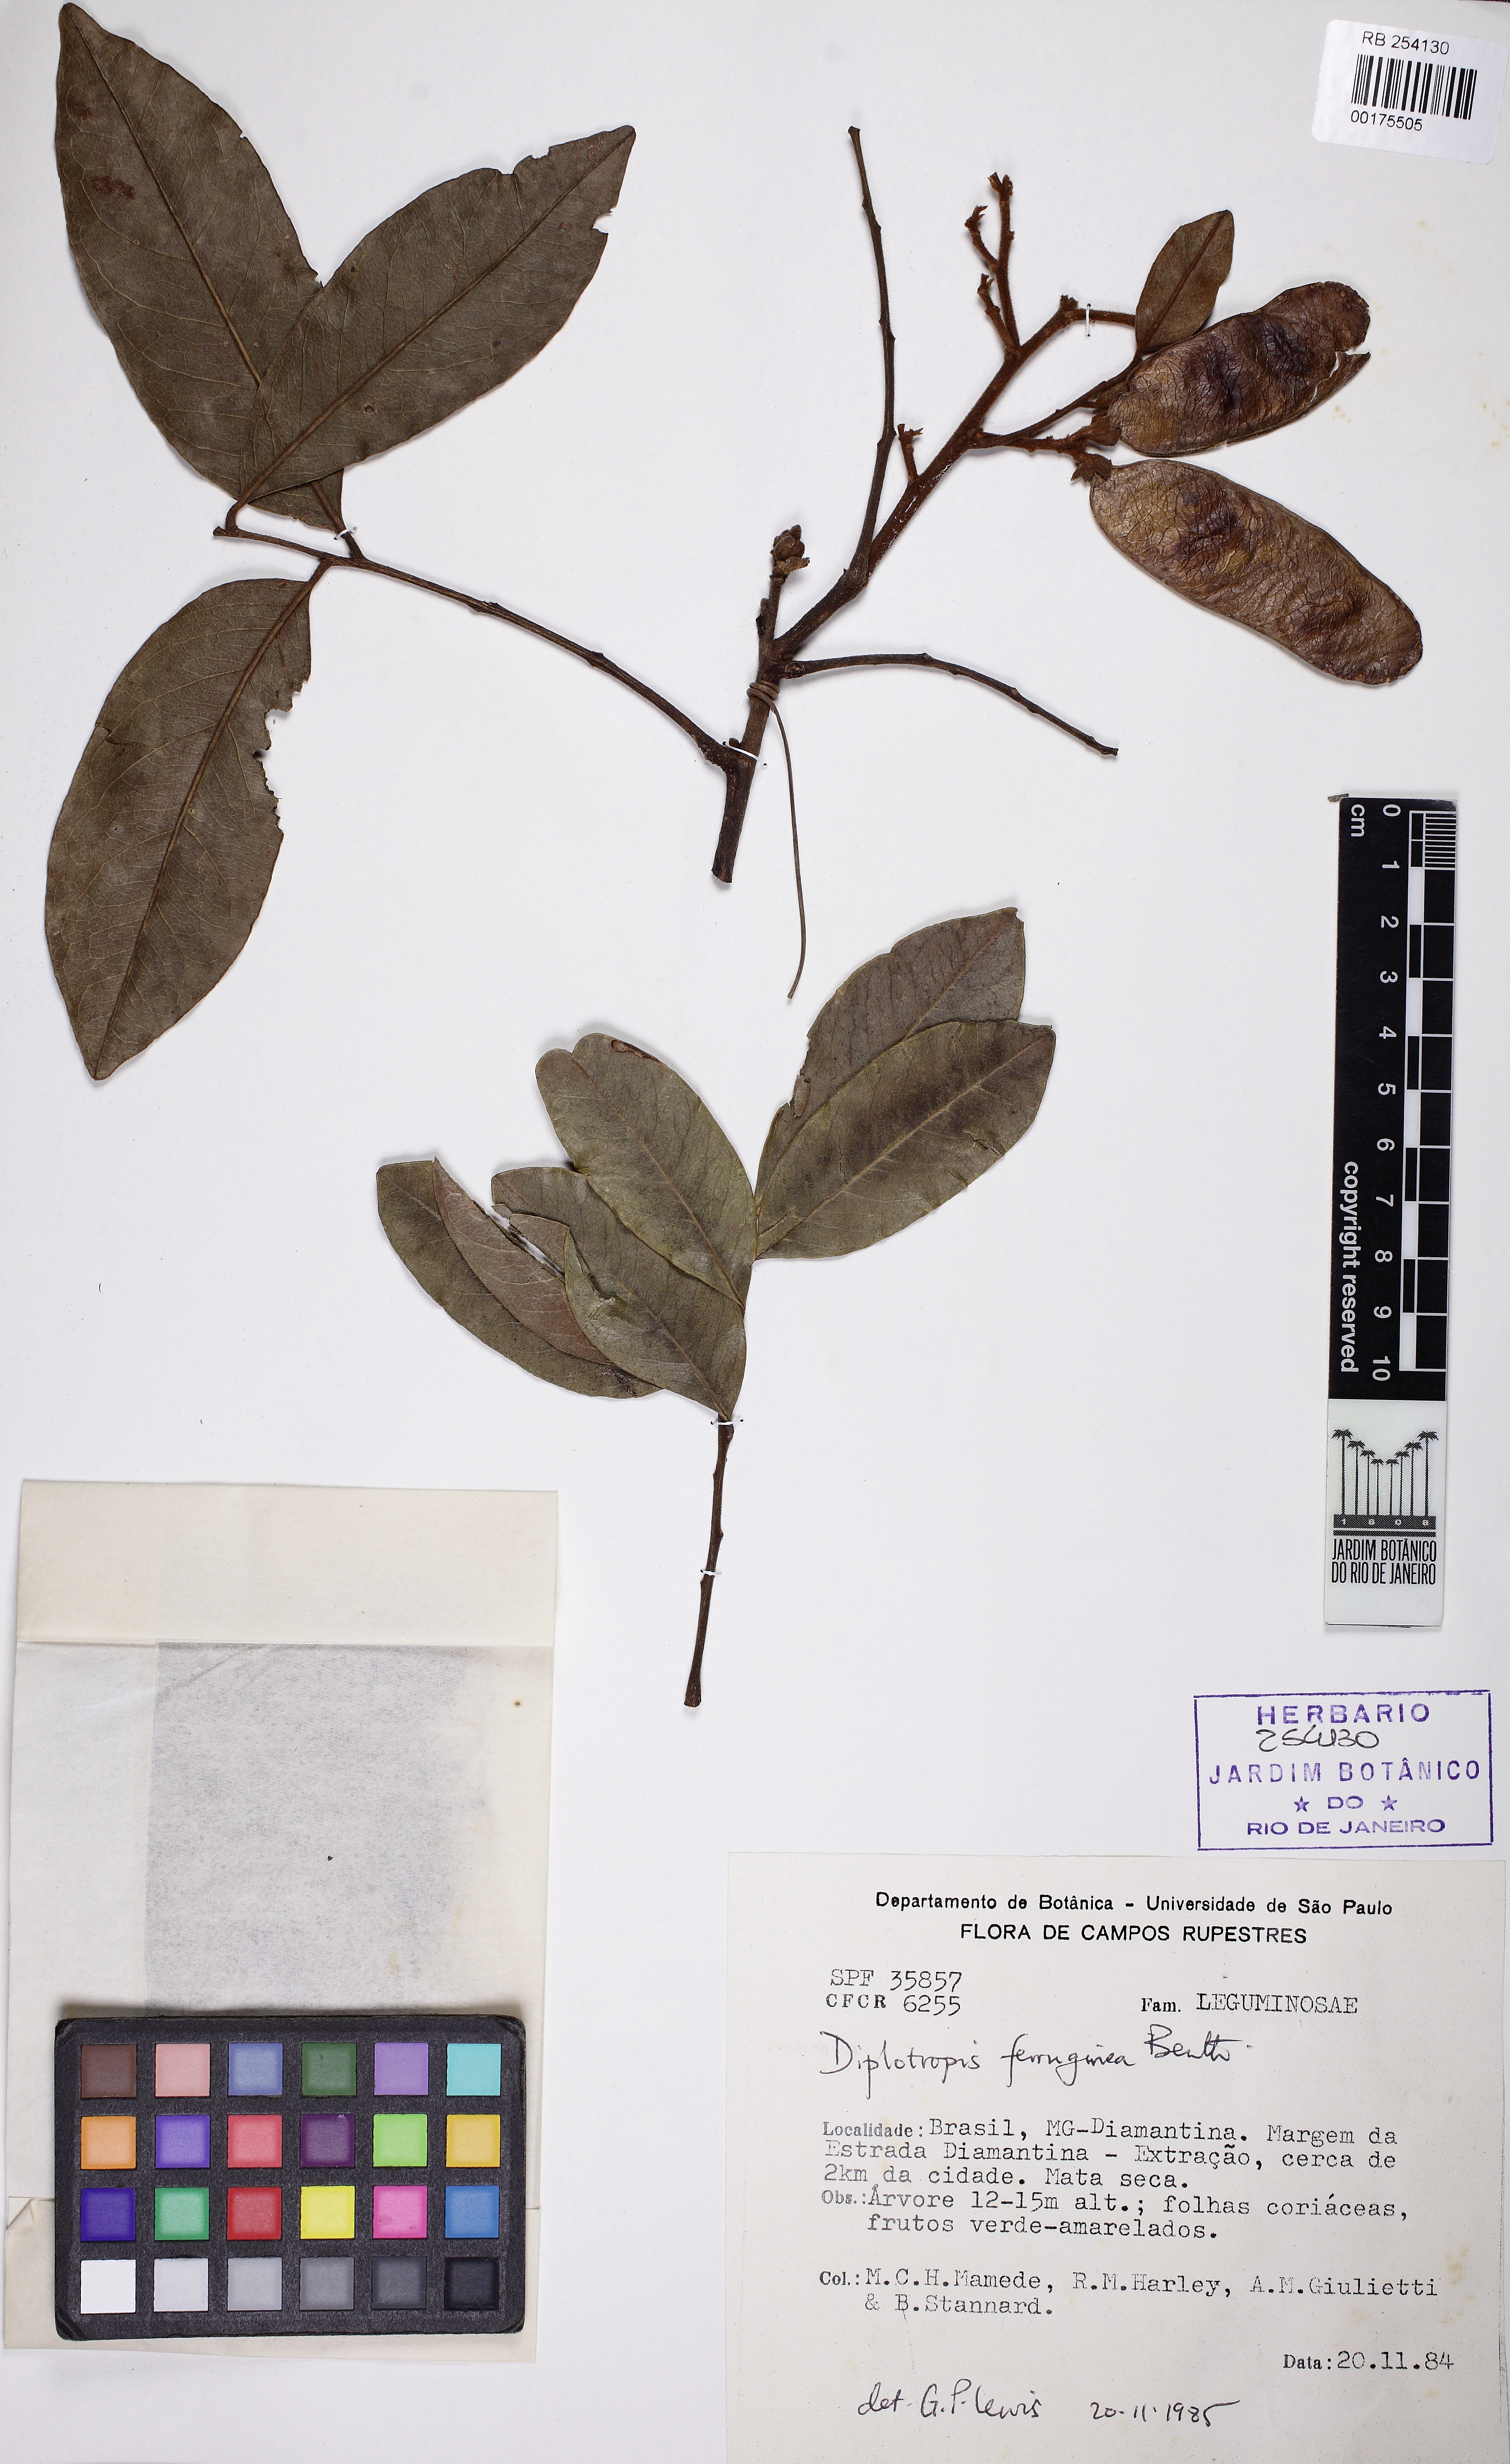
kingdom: Plantae
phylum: Tracheophyta
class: Magnoliopsida
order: Fabales
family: Fabaceae
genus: Diplotropis
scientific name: Diplotropis ferruginea
